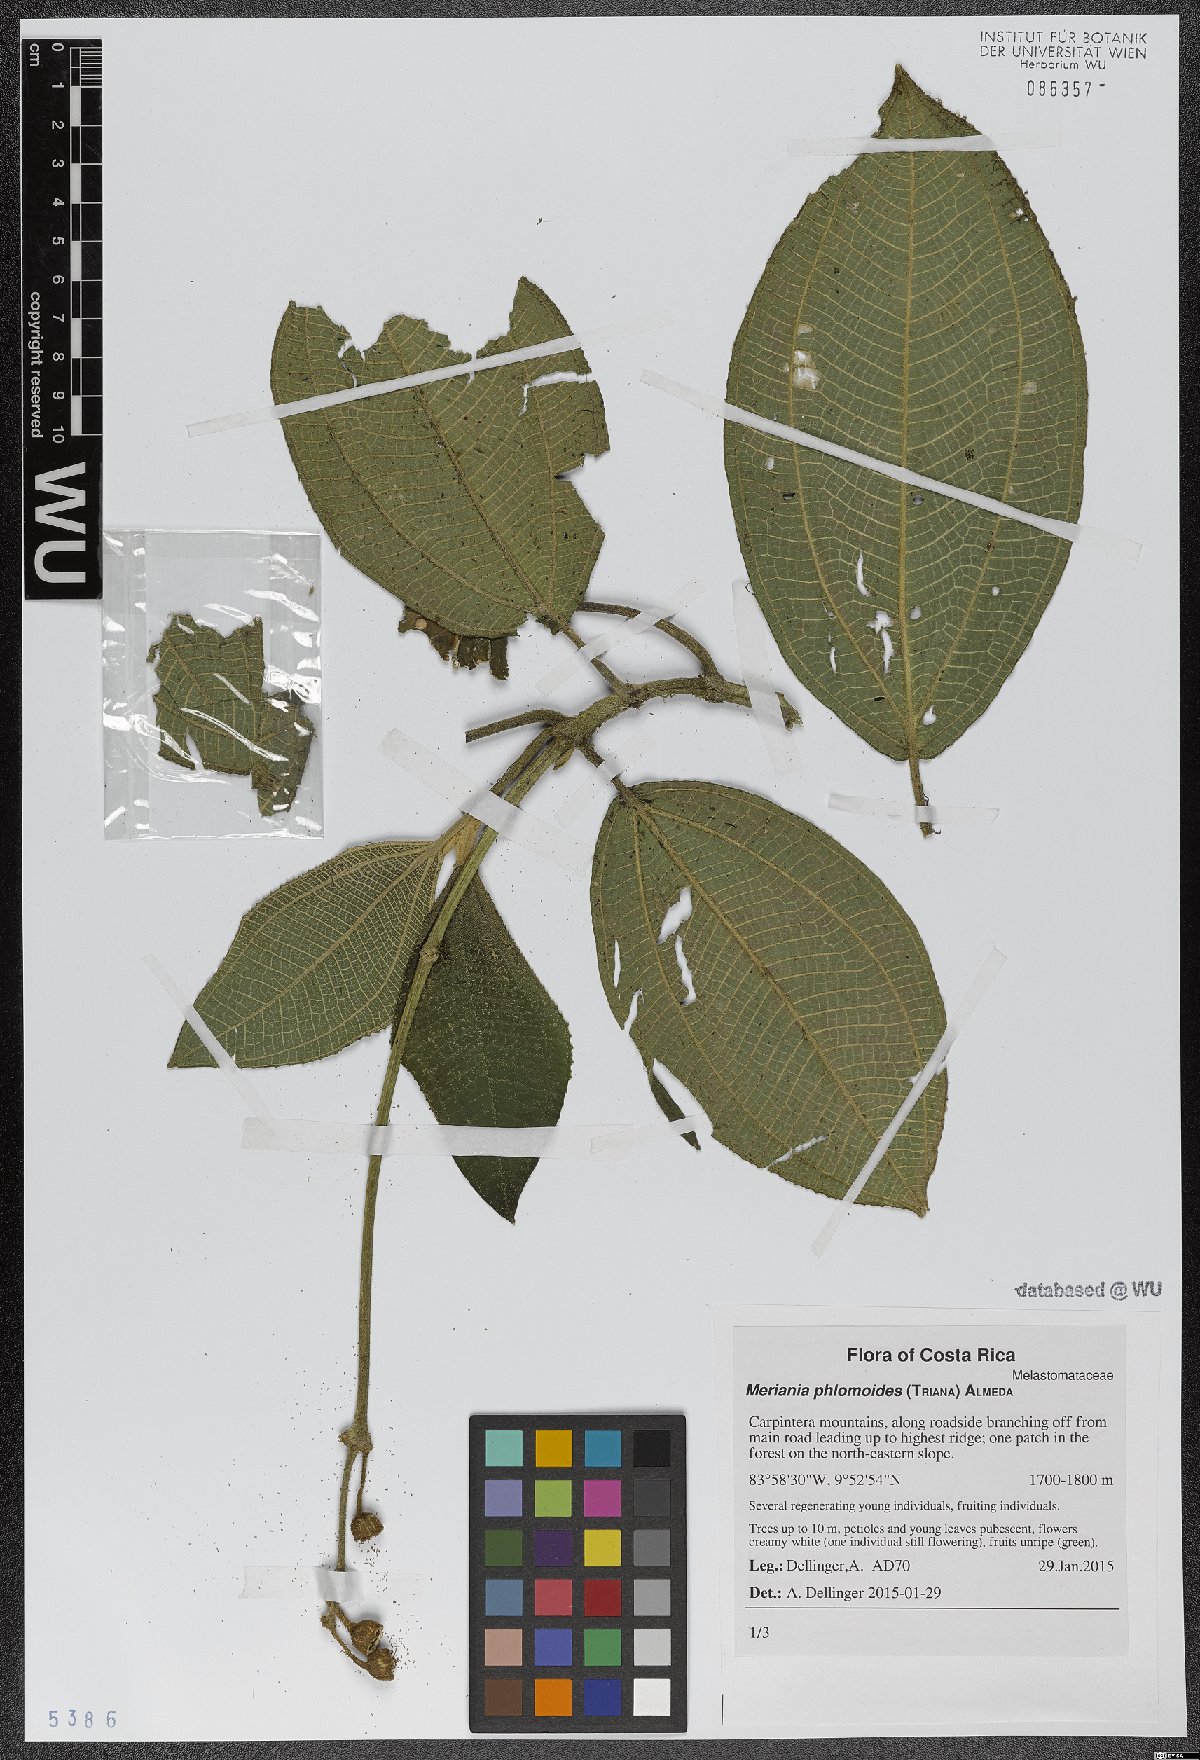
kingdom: Plantae
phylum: Tracheophyta
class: Magnoliopsida
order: Myrtales
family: Melastomataceae
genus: Meriania
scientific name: Meriania phlomoides
